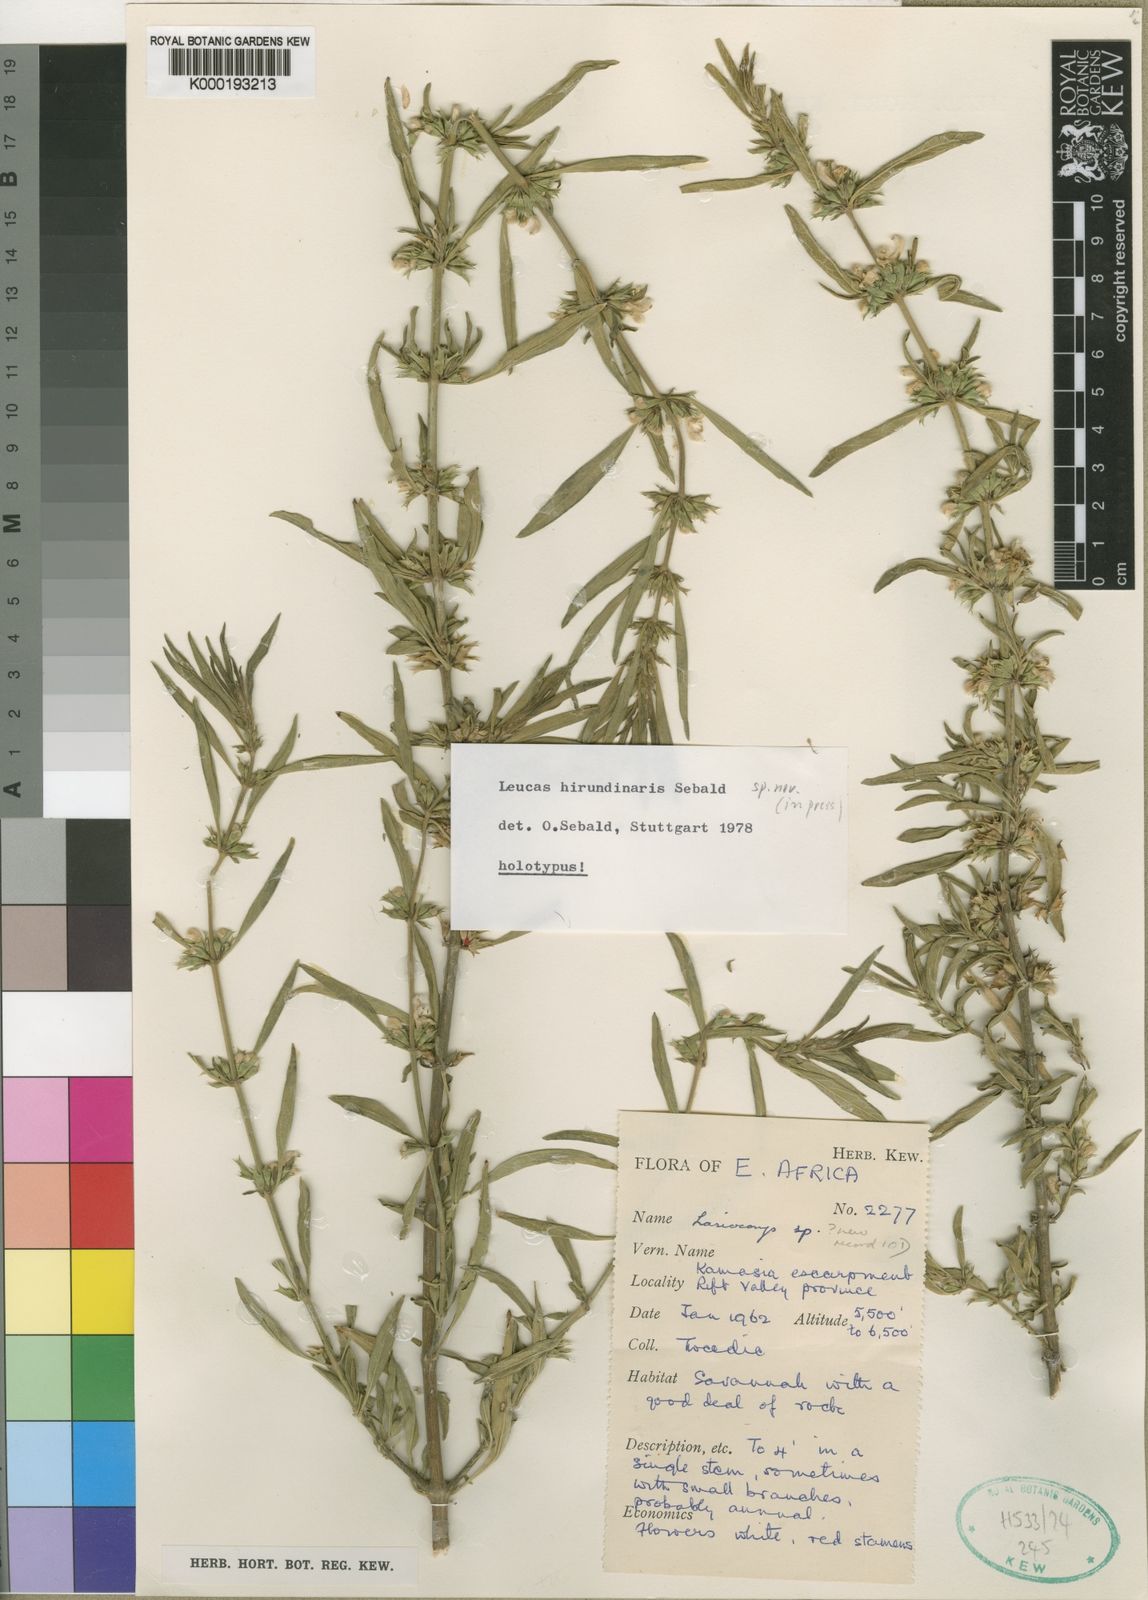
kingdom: Plantae
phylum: Tracheophyta
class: Magnoliopsida
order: Lamiales
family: Lamiaceae
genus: Leucas
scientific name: Leucas hirundinaris
